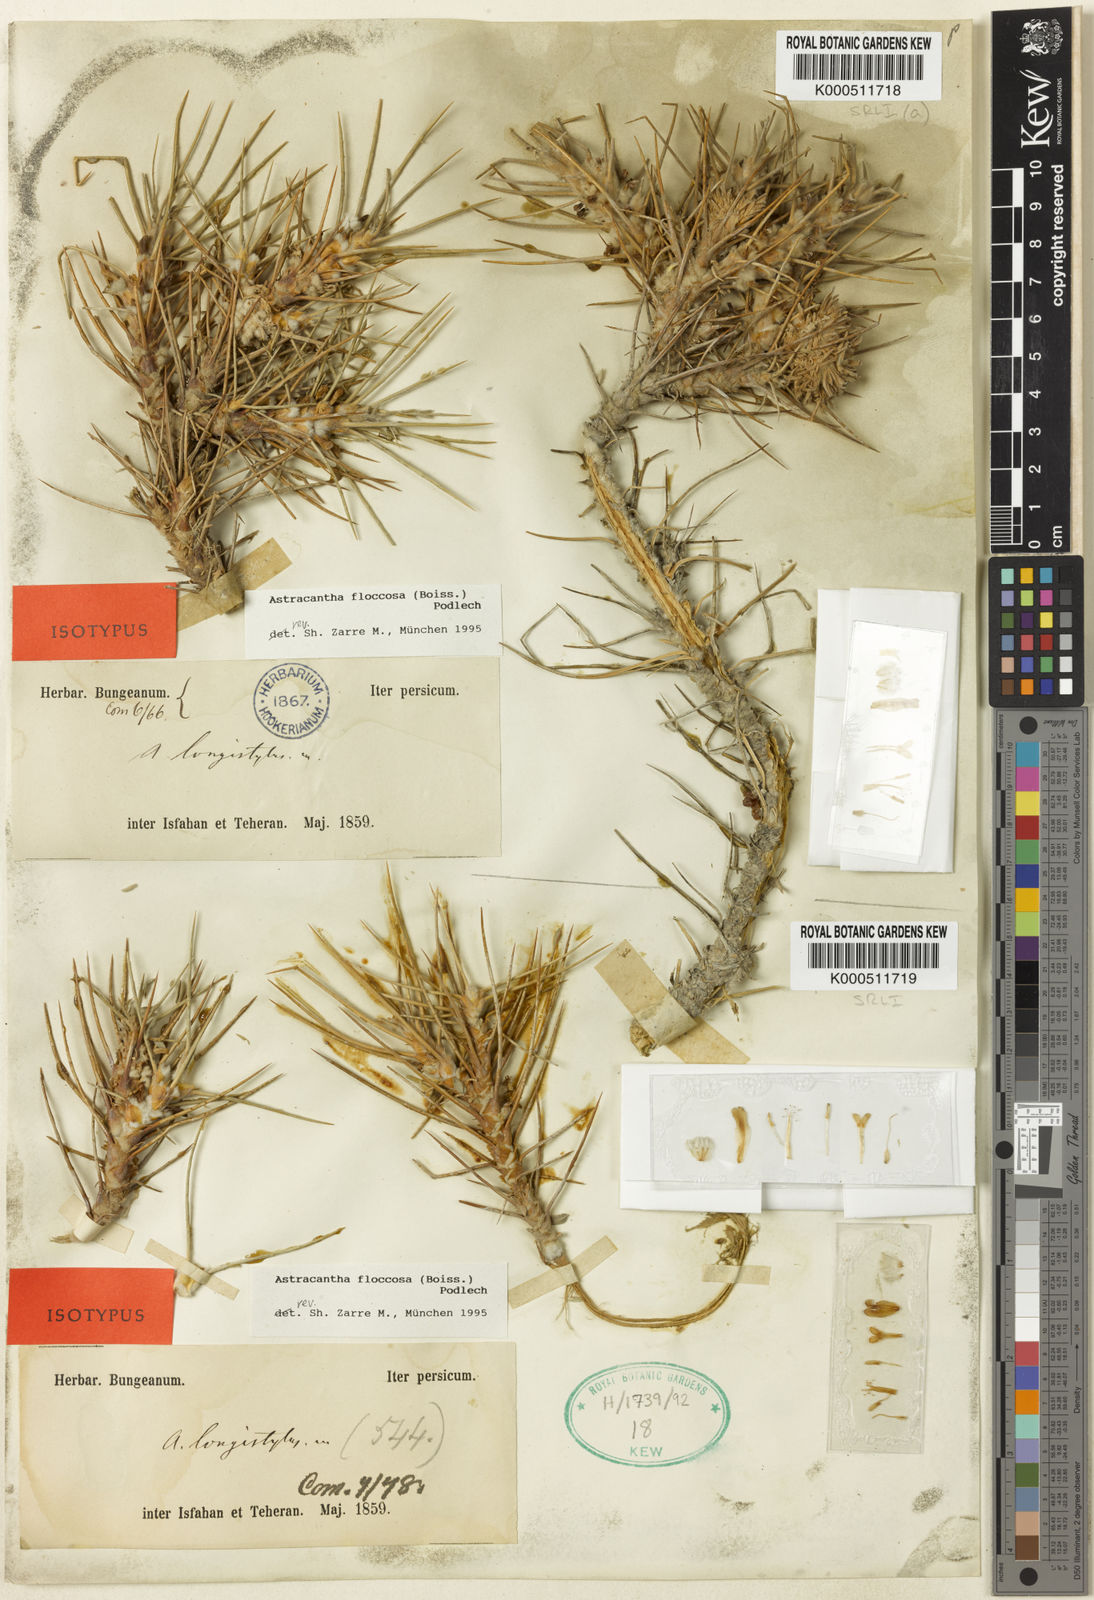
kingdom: Plantae
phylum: Tracheophyta
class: Magnoliopsida
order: Fabales
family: Fabaceae
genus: Astragalus
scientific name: Astragalus
